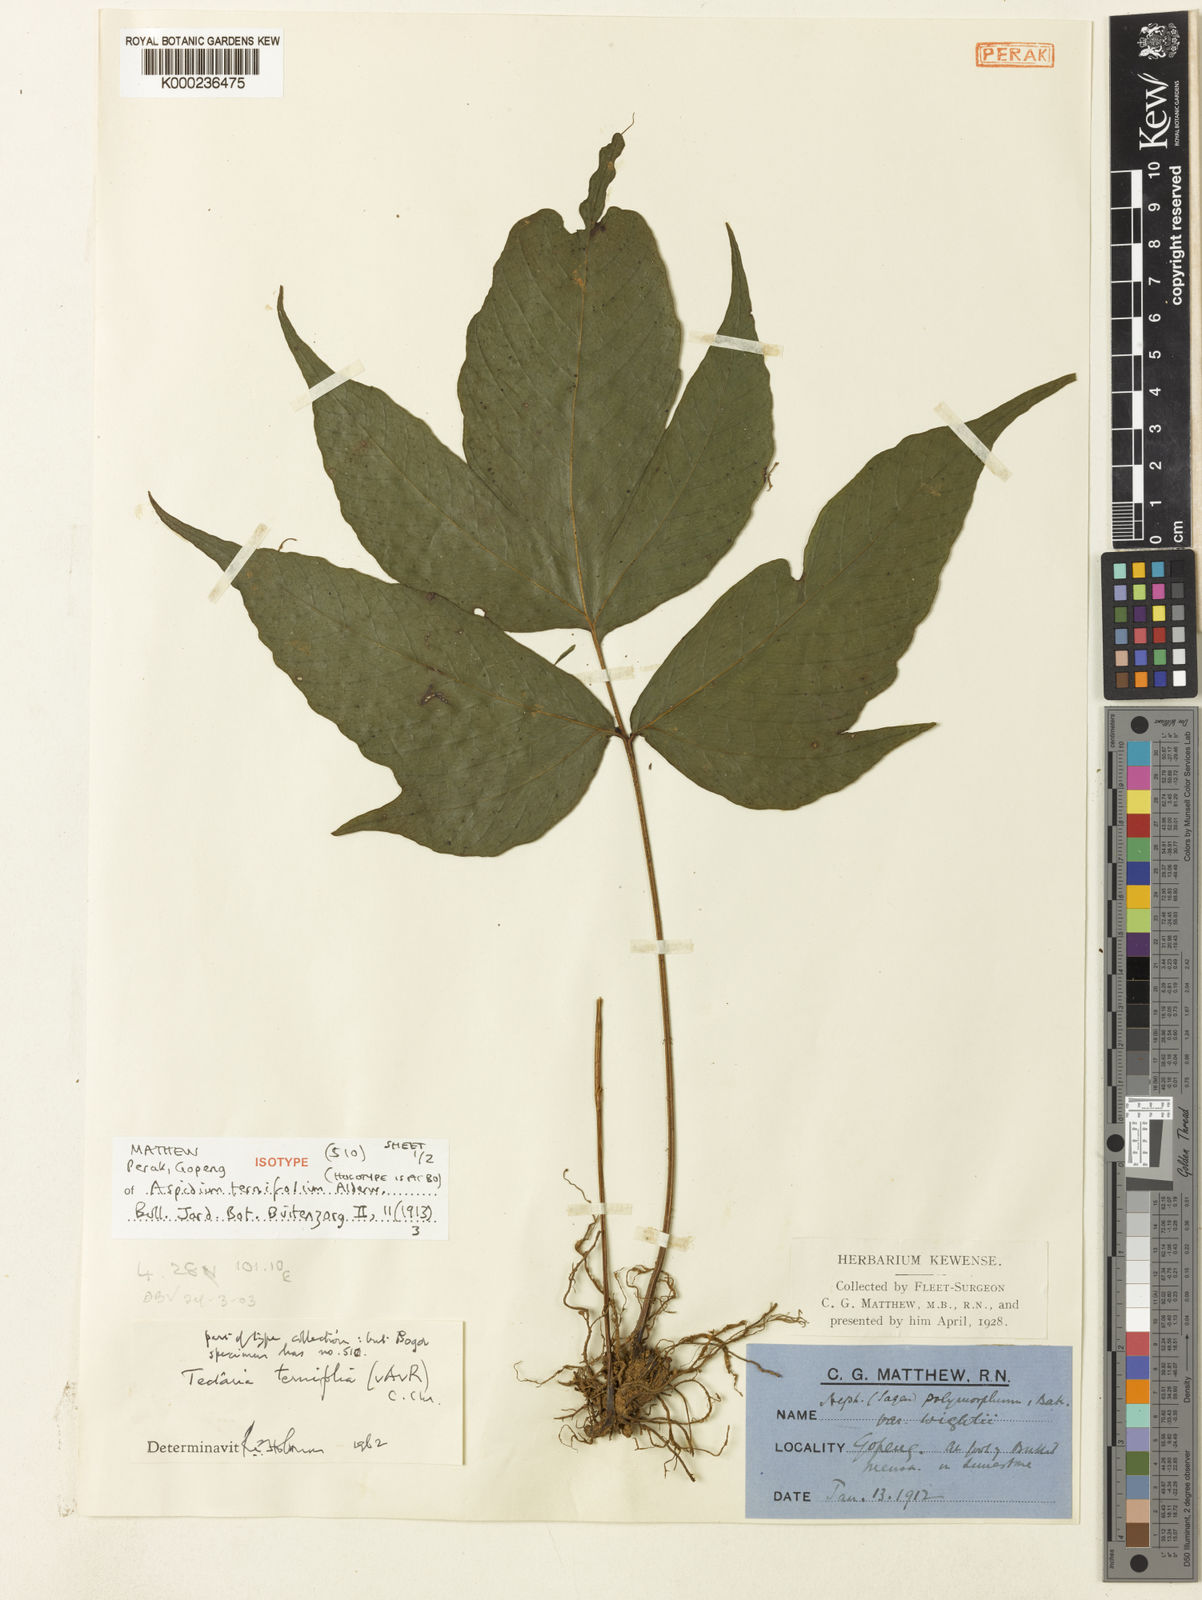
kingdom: Plantae
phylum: Tracheophyta
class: Polypodiopsida
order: Polypodiales
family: Tectariaceae
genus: Tectaria
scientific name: Tectaria siifolia
